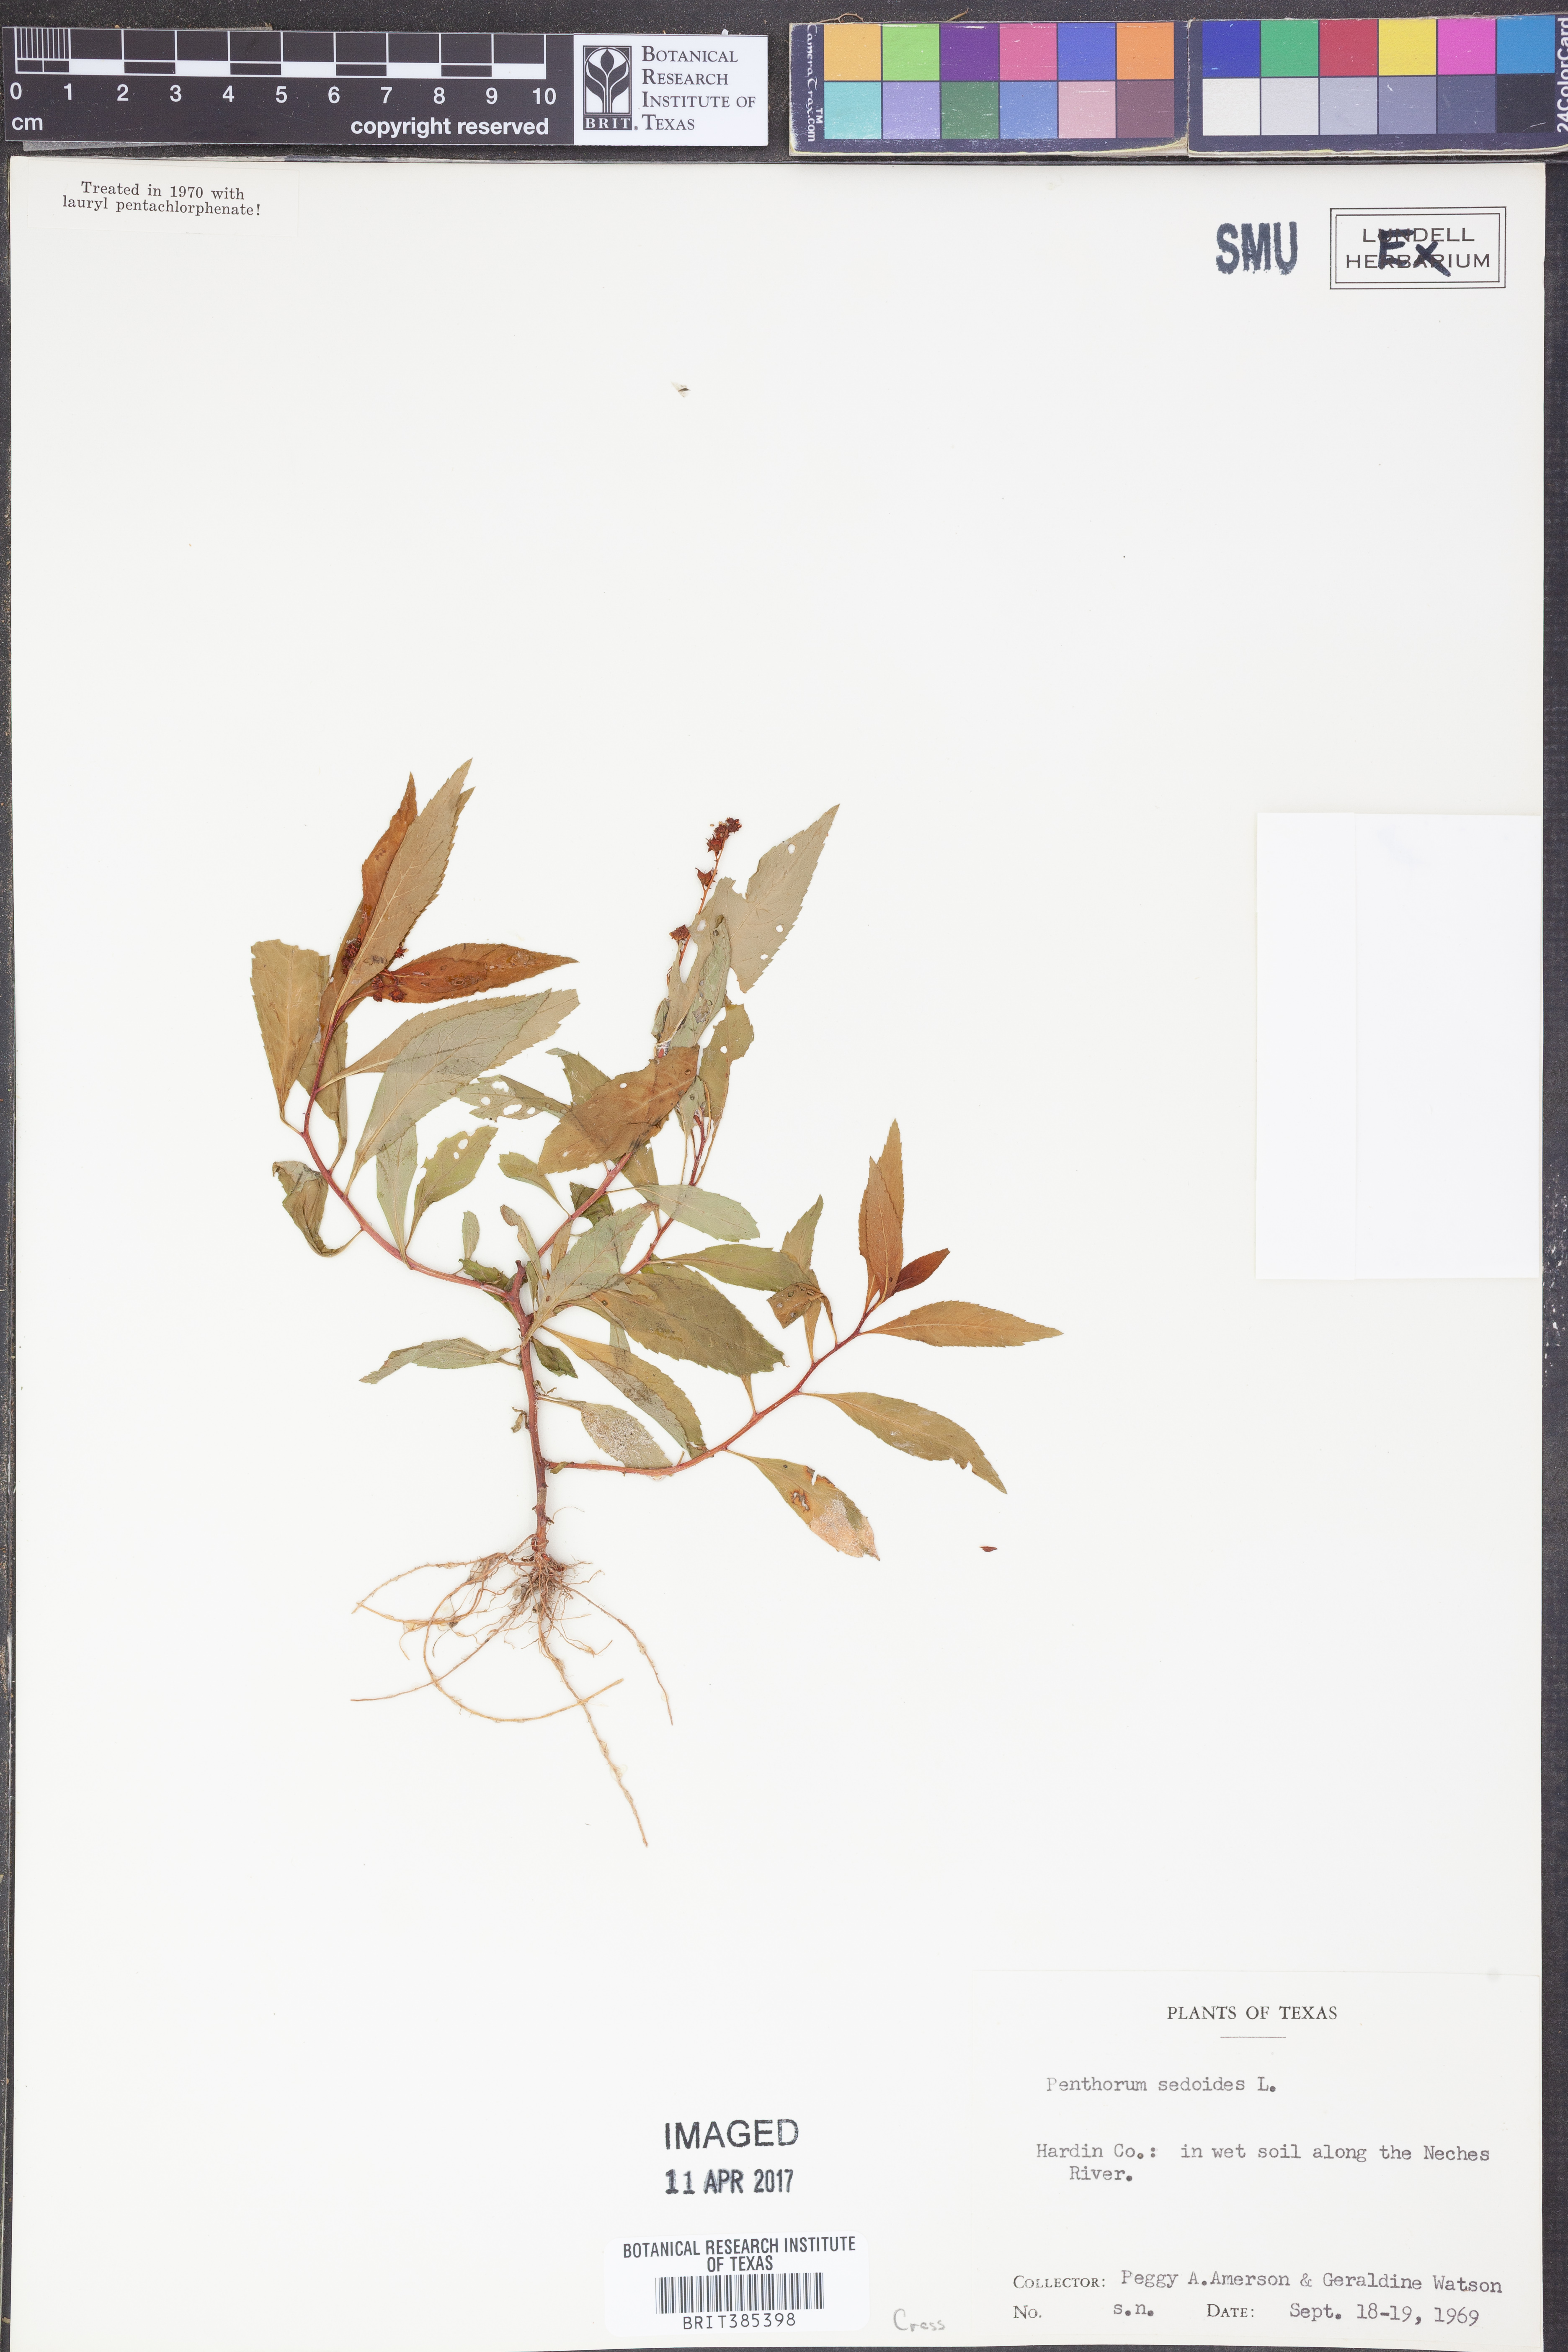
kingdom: Plantae
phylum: Tracheophyta
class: Magnoliopsida
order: Saxifragales
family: Penthoraceae
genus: Penthorum
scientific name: Penthorum sedoides
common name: Ditch stonecrop
